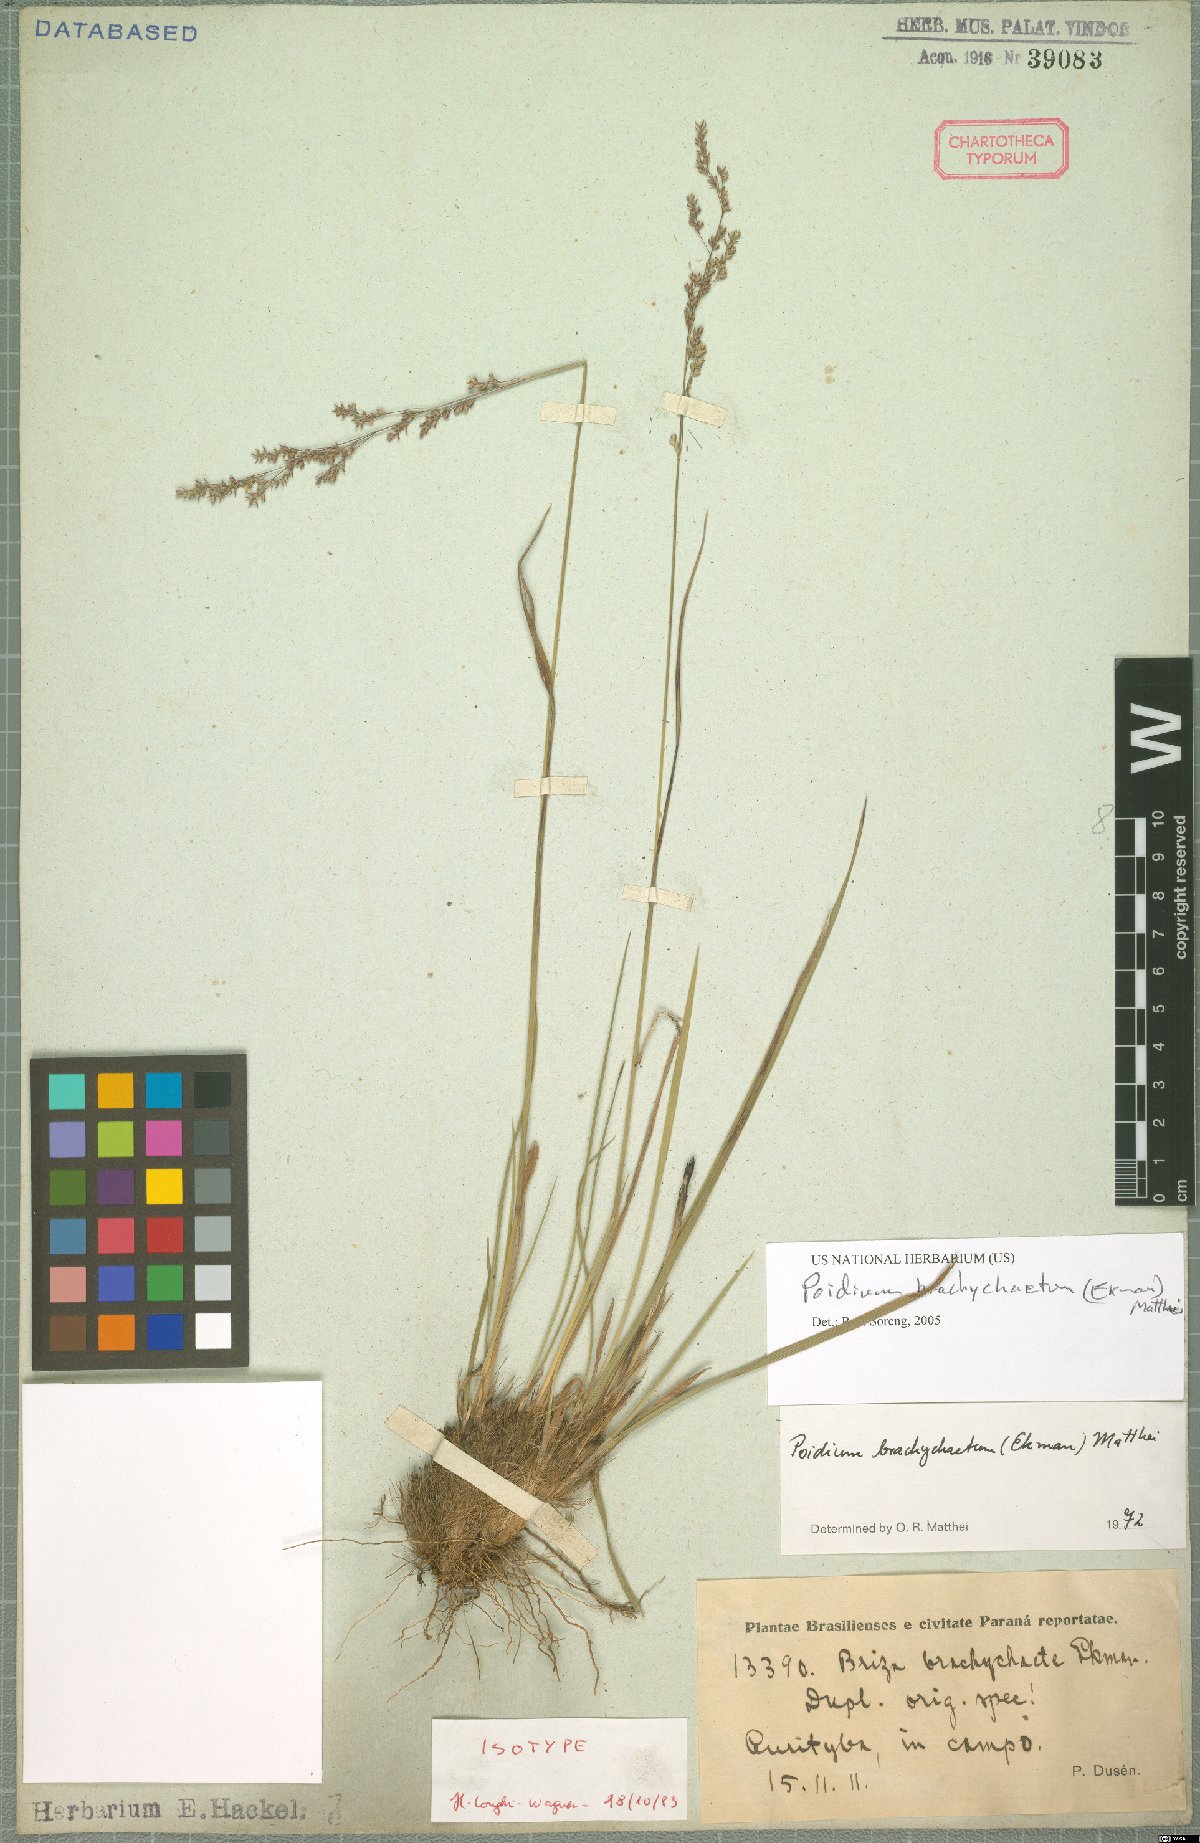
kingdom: Plantae
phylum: Tracheophyta
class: Liliopsida
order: Poales
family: Poaceae
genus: Microbriza
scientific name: Microbriza brachychaete
